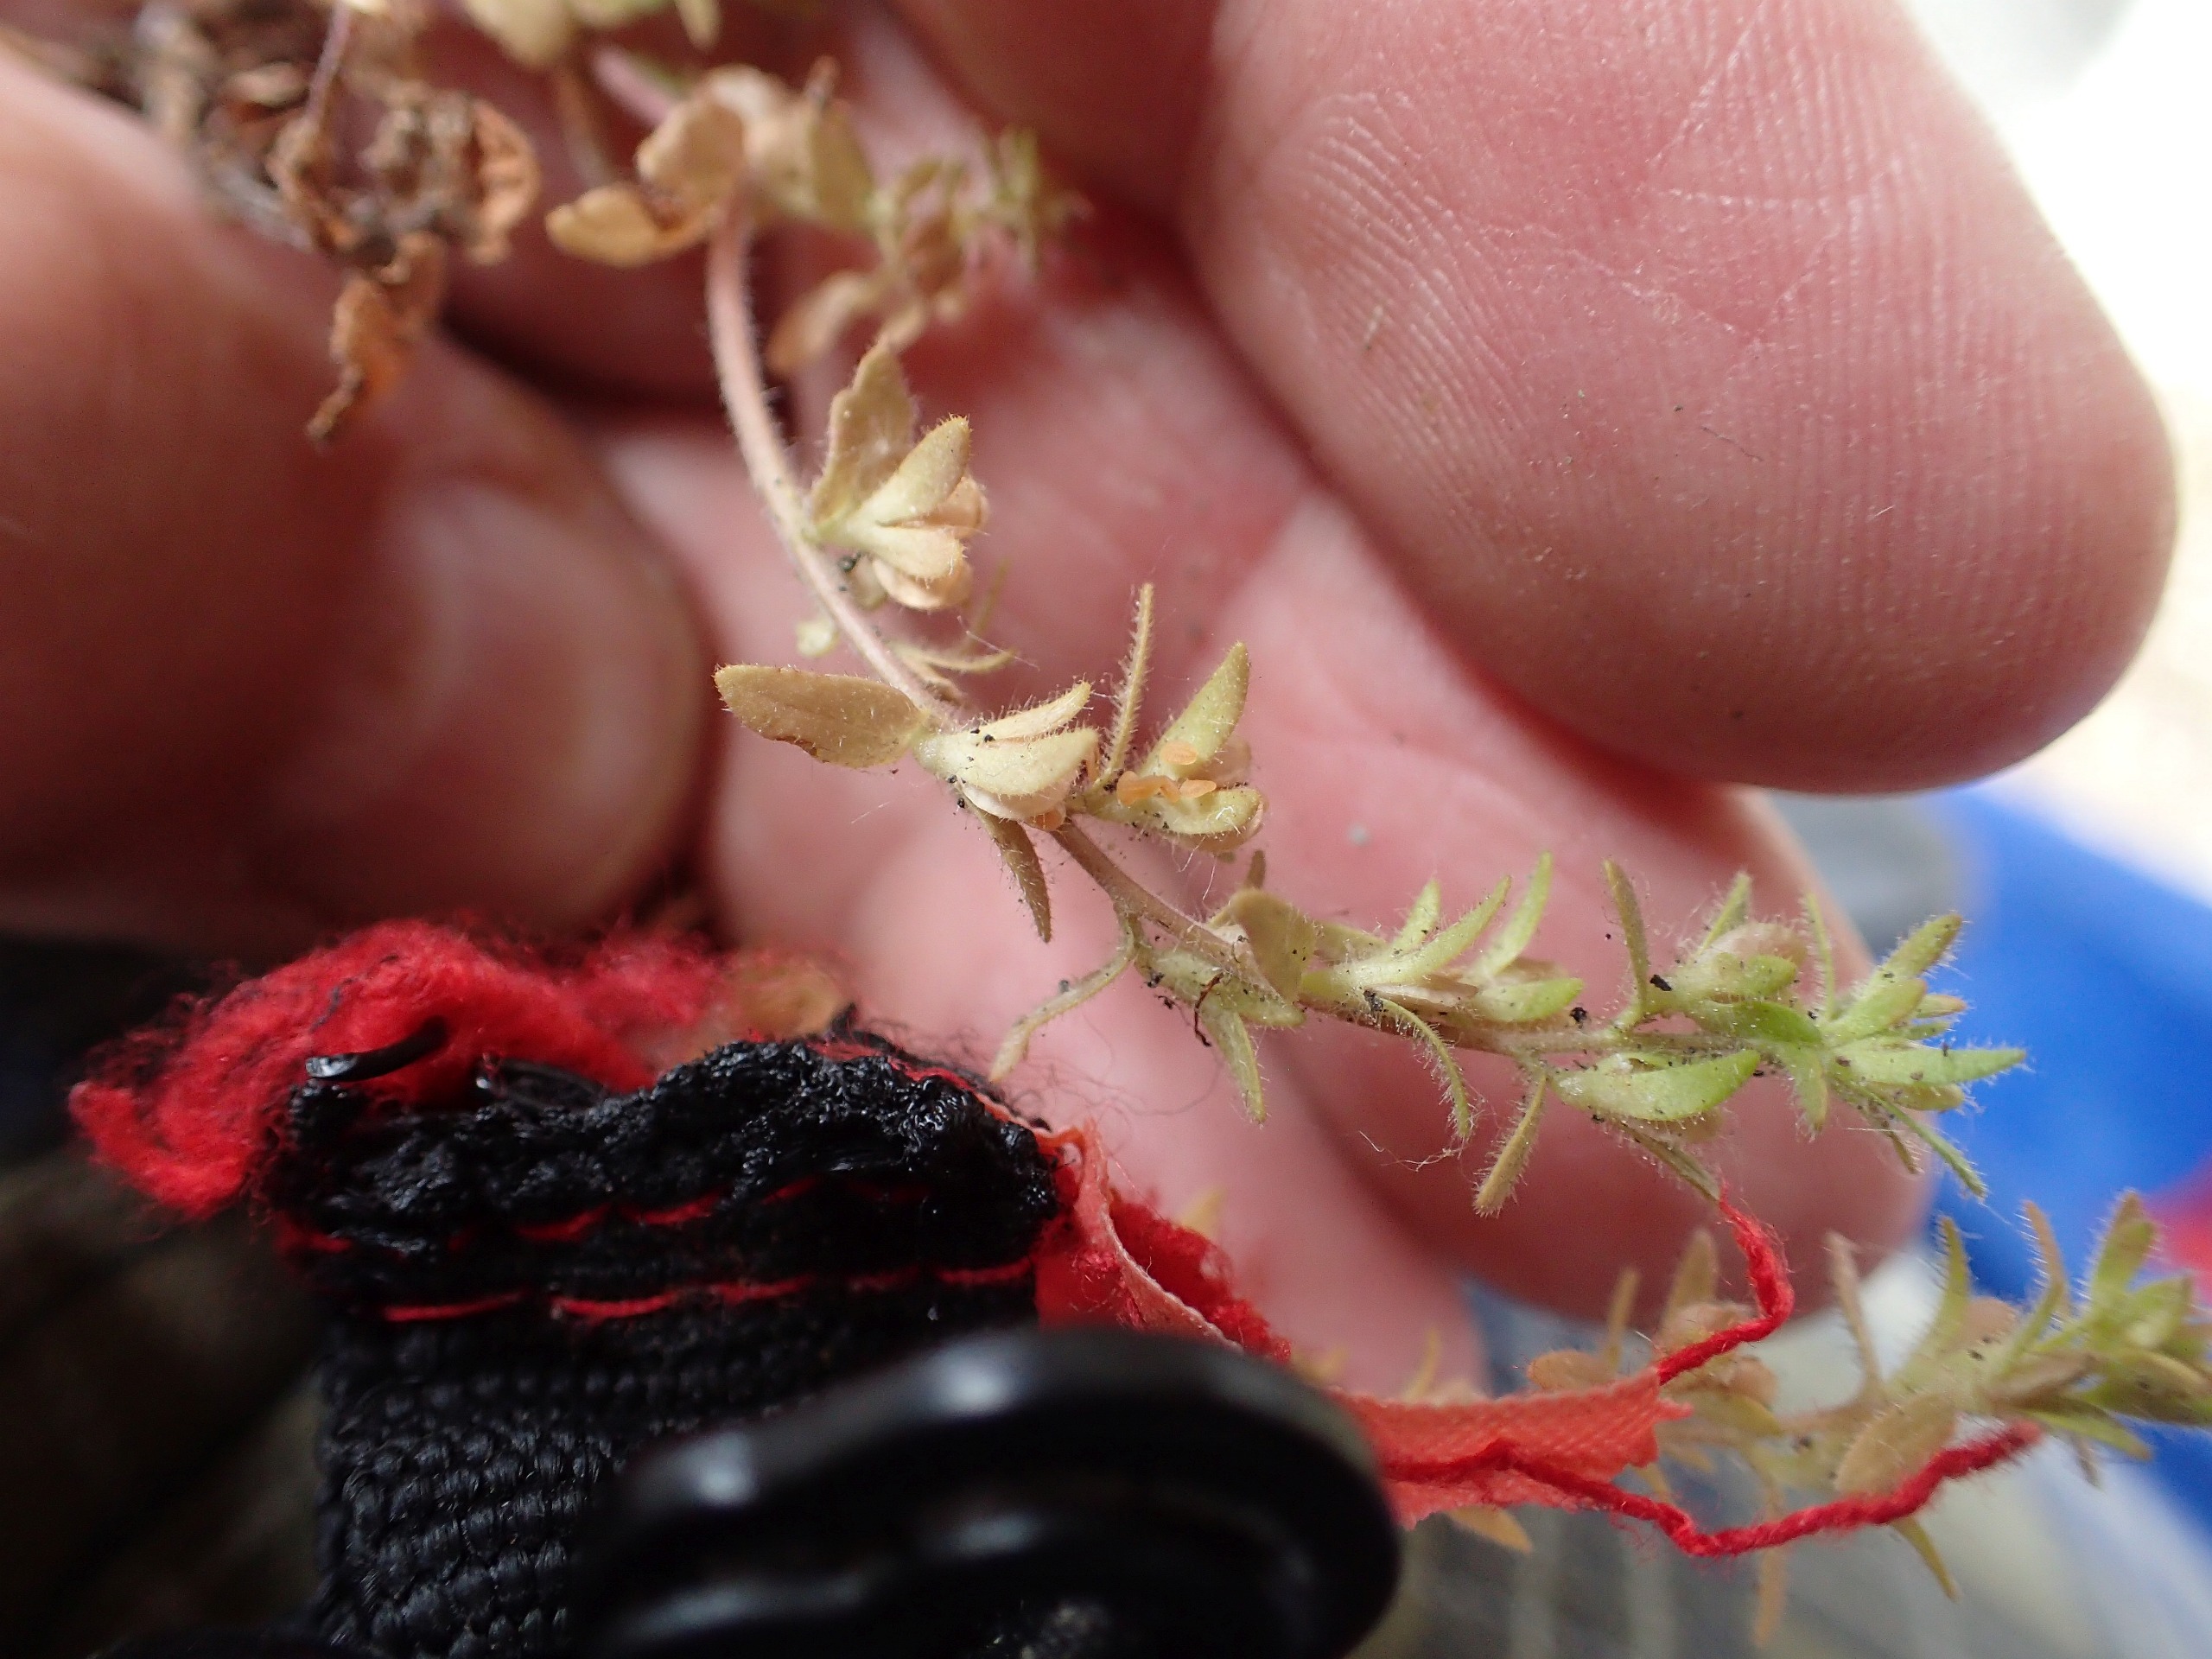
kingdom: Plantae
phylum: Tracheophyta
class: Magnoliopsida
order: Lamiales
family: Plantaginaceae
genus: Veronica
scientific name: Veronica arvensis
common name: Mark-ærenpris
